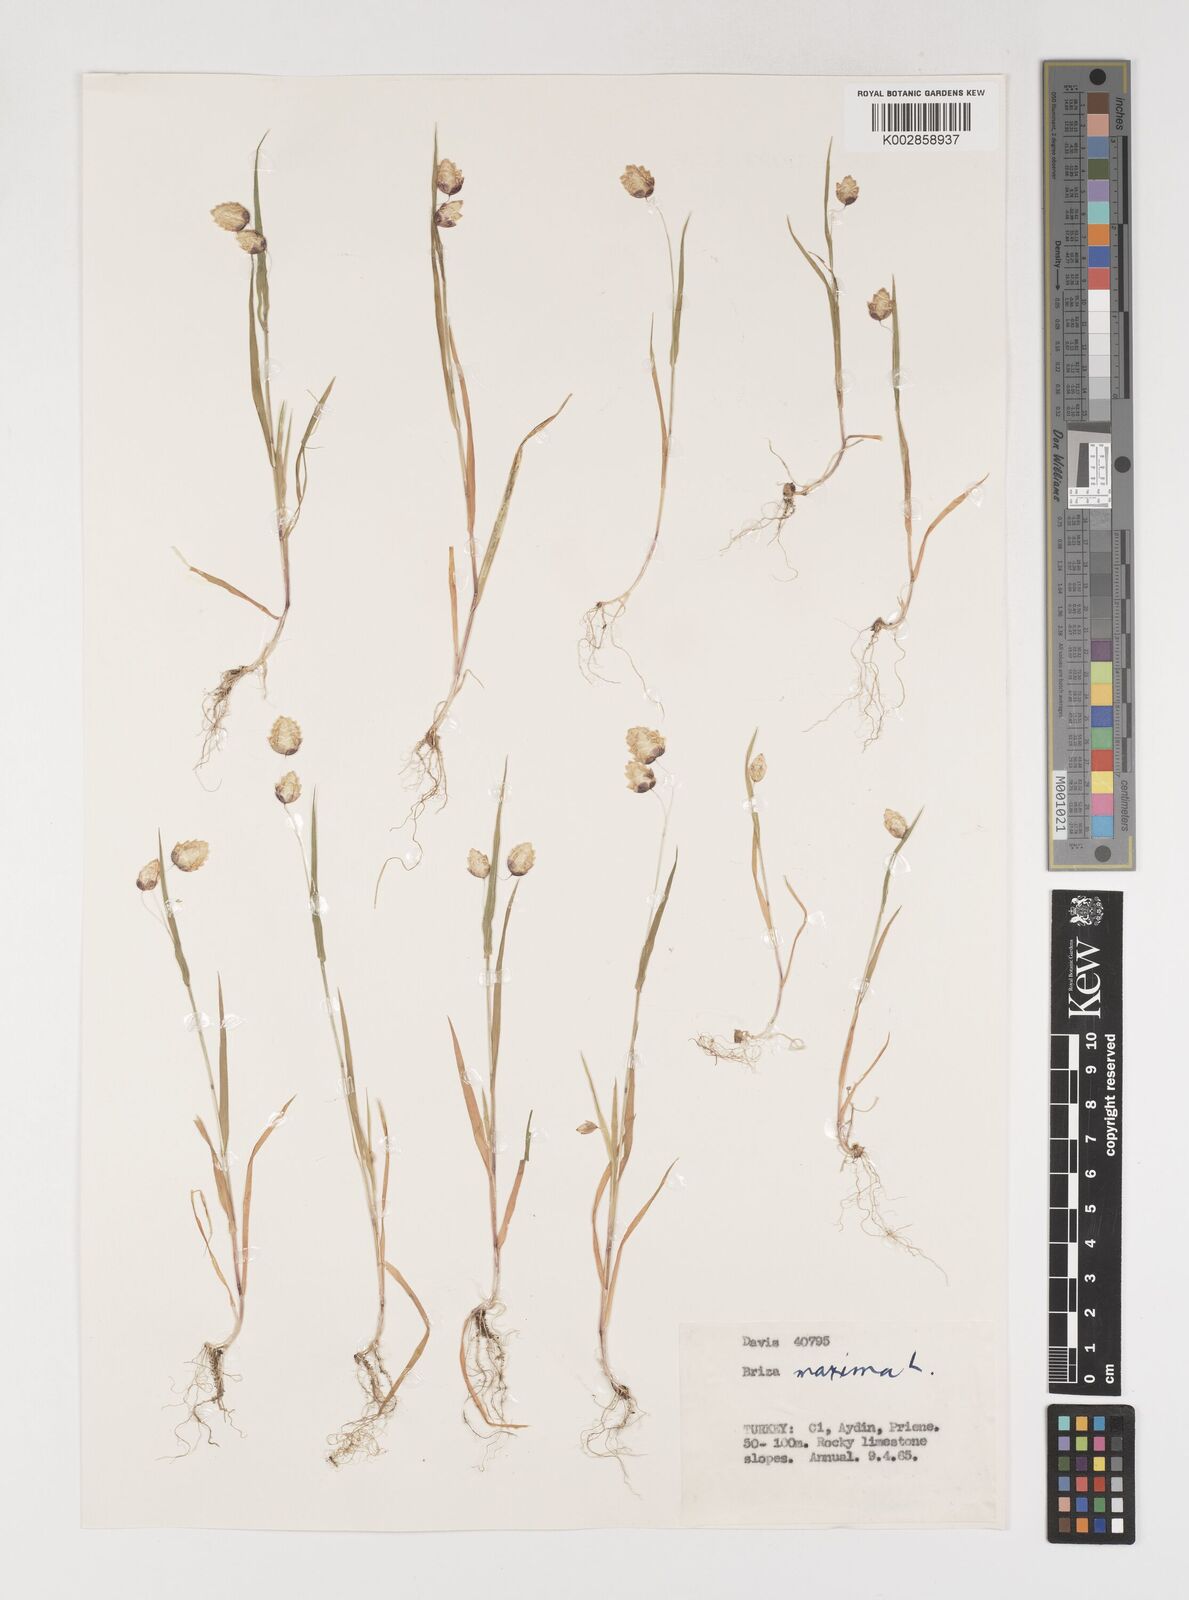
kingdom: Plantae
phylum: Tracheophyta
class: Liliopsida
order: Poales
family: Poaceae
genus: Briza
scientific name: Briza maxima
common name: Big quakinggrass
